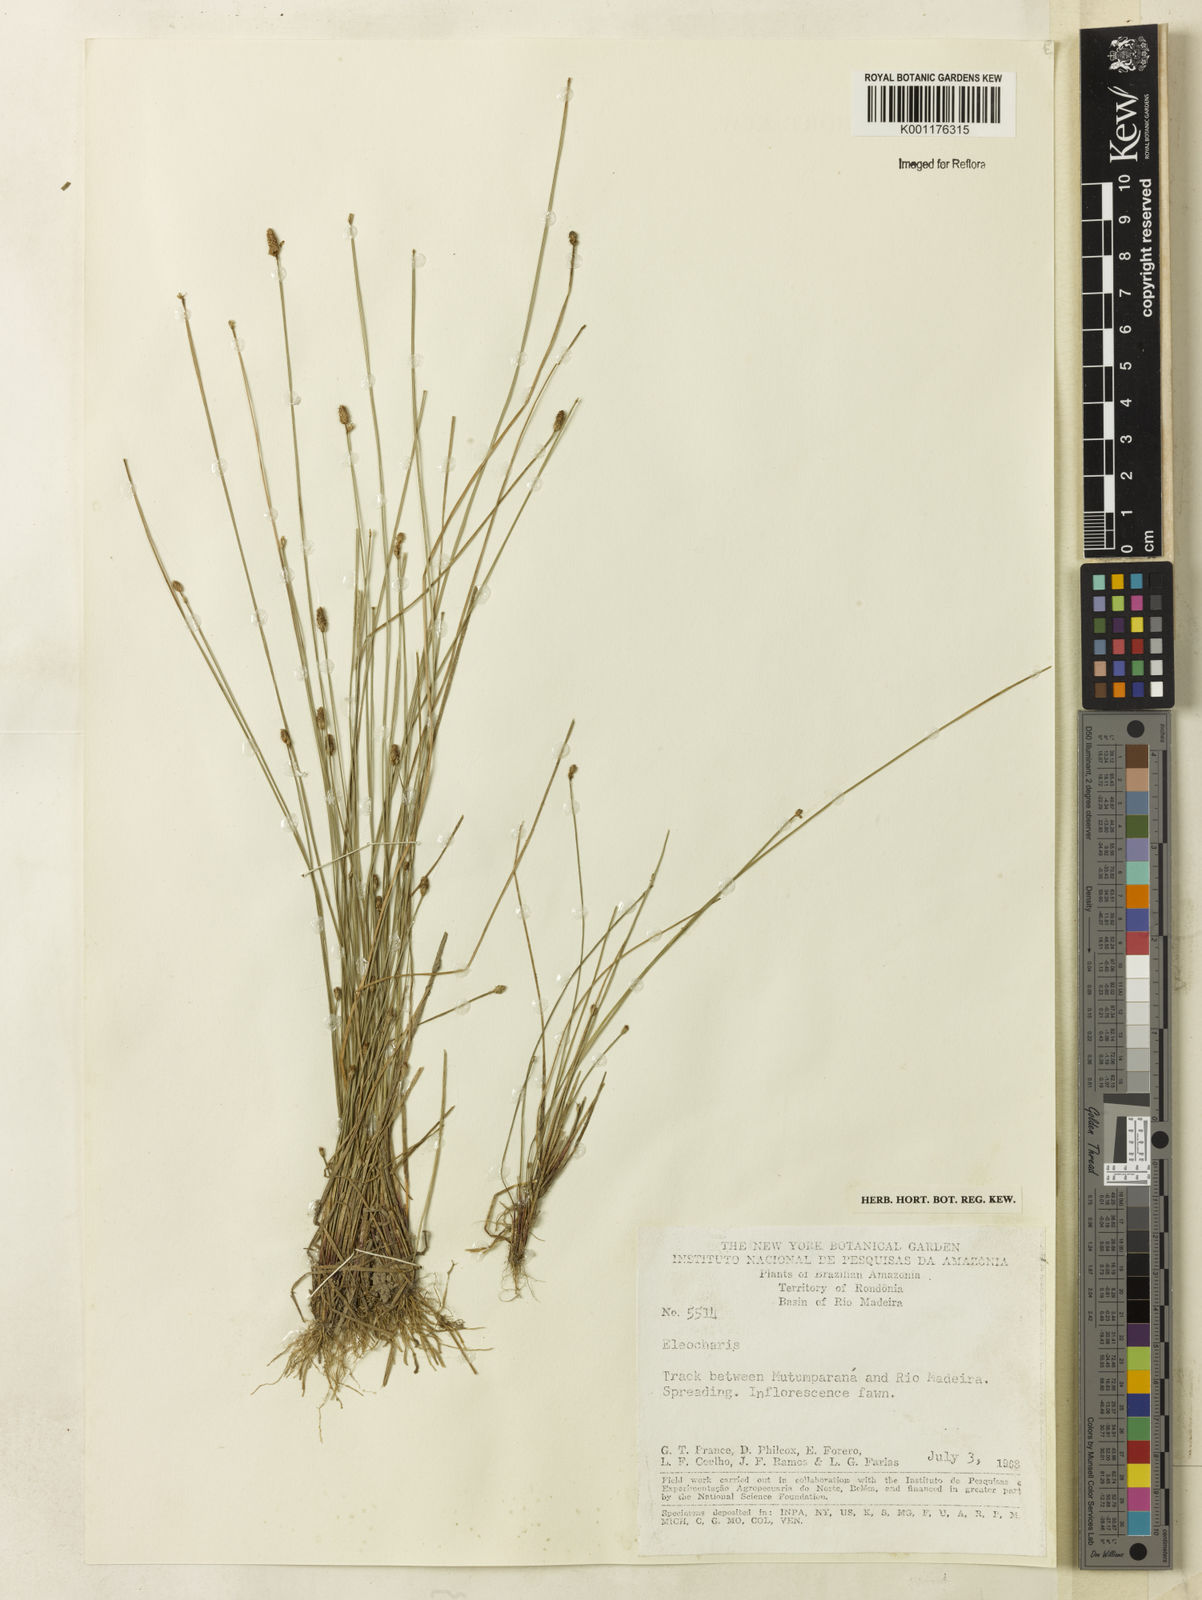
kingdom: Plantae
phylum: Tracheophyta
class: Liliopsida
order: Poales
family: Cyperaceae
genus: Eleocharis
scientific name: Eleocharis
